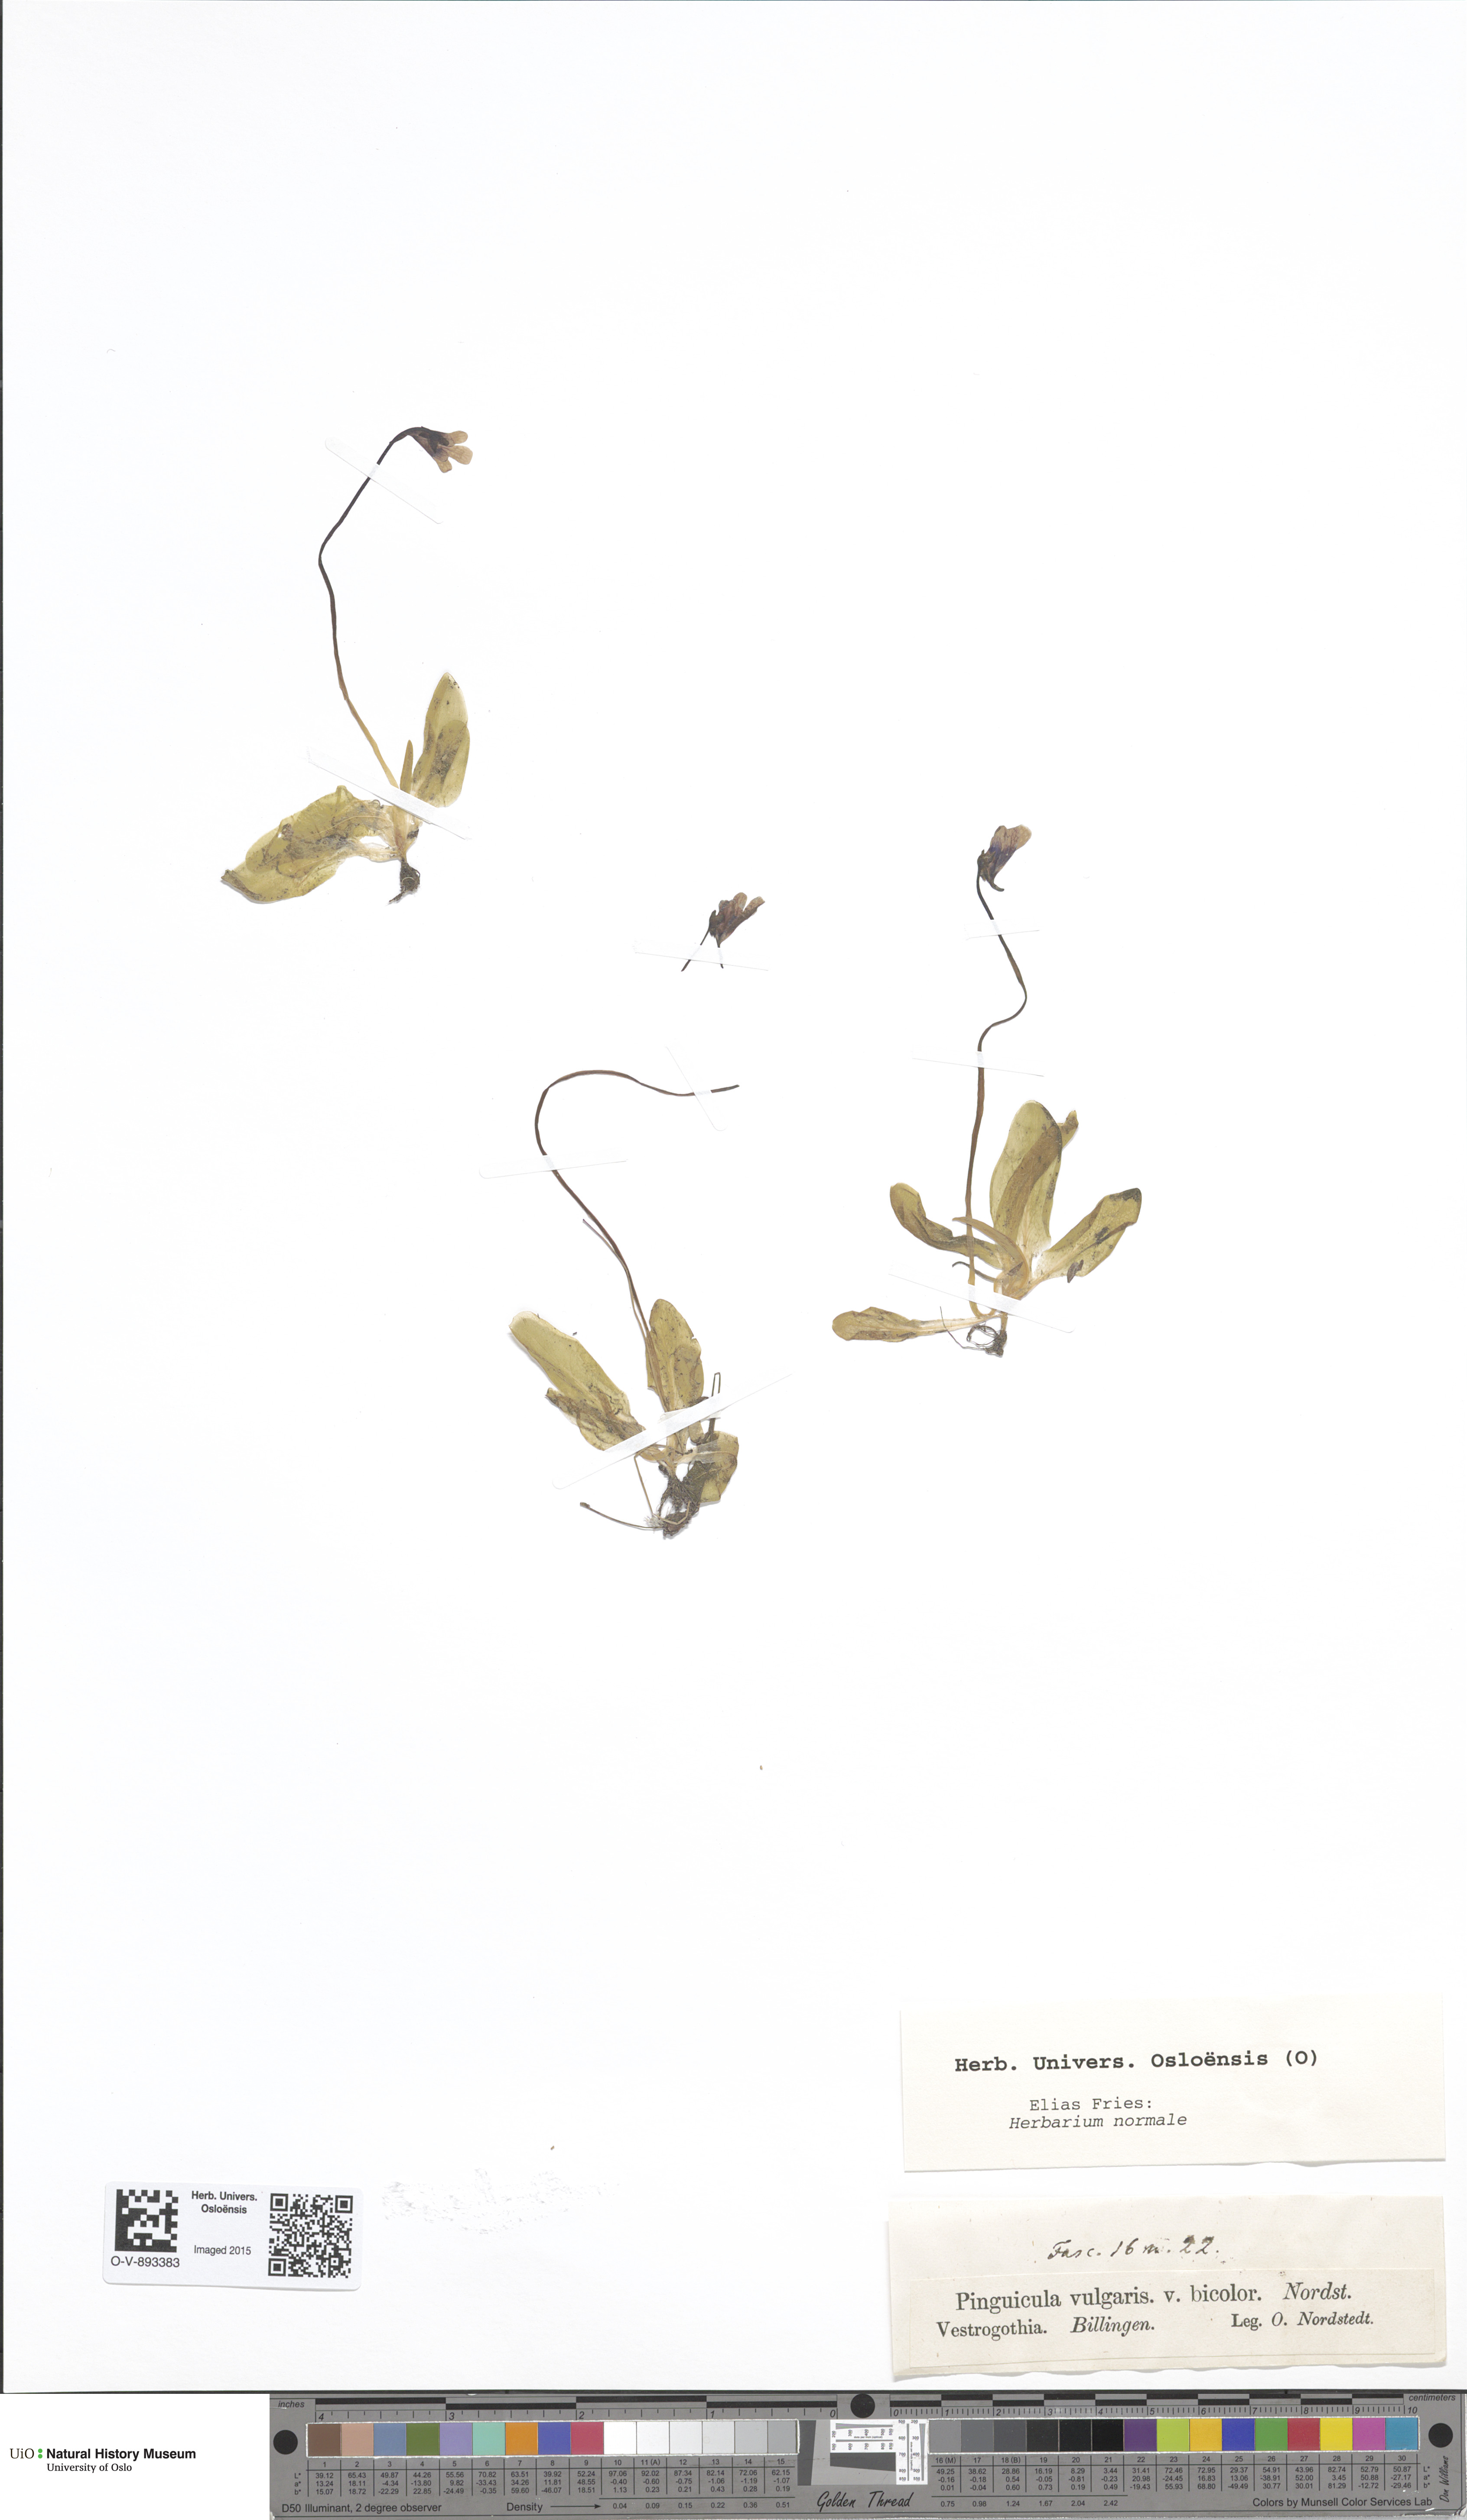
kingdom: Plantae
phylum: Tracheophyta
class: Magnoliopsida
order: Lamiales
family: Lentibulariaceae
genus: Pinguicula
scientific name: Pinguicula vulgaris
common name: Common butterwort
